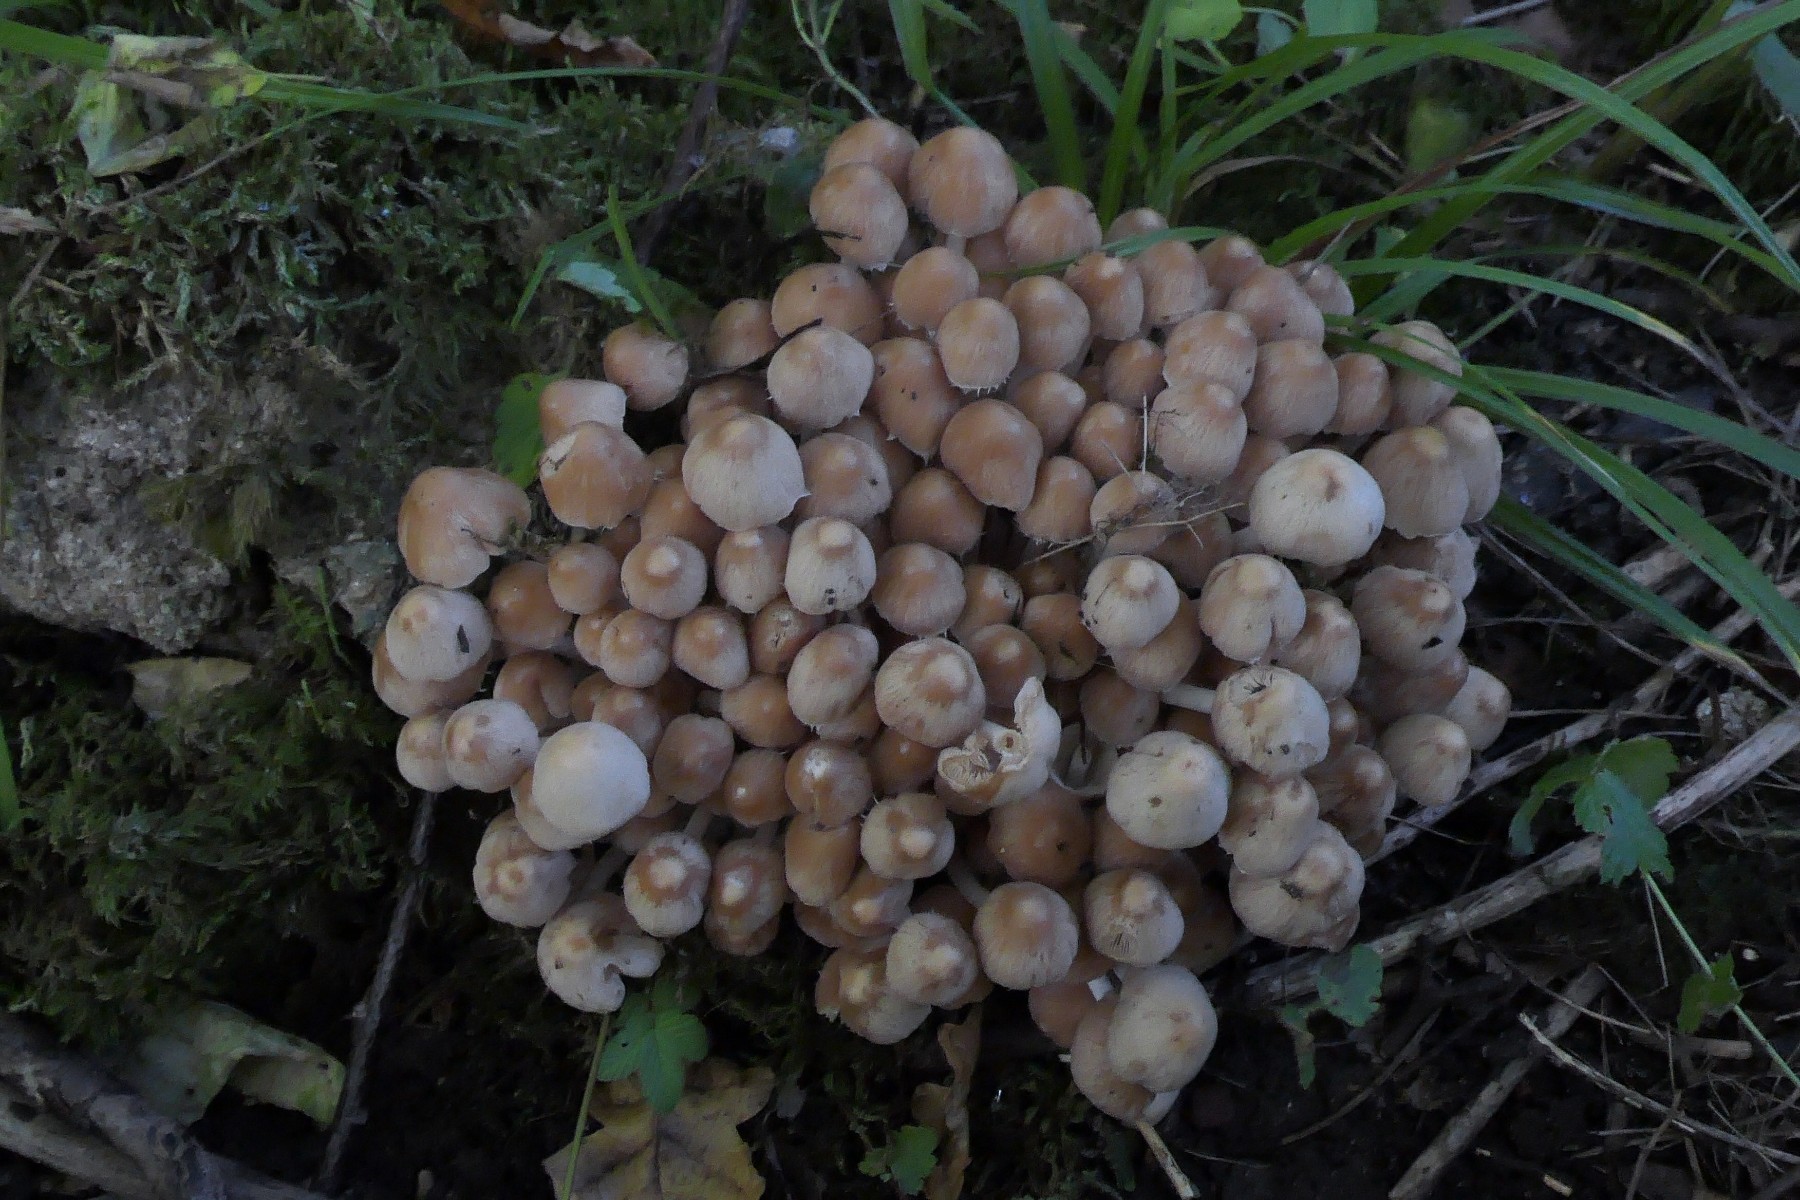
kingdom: Fungi
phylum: Basidiomycota
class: Agaricomycetes
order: Agaricales
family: Psathyrellaceae
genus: Britzelmayria
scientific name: Britzelmayria multipedata
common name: knippe-mørkhat
